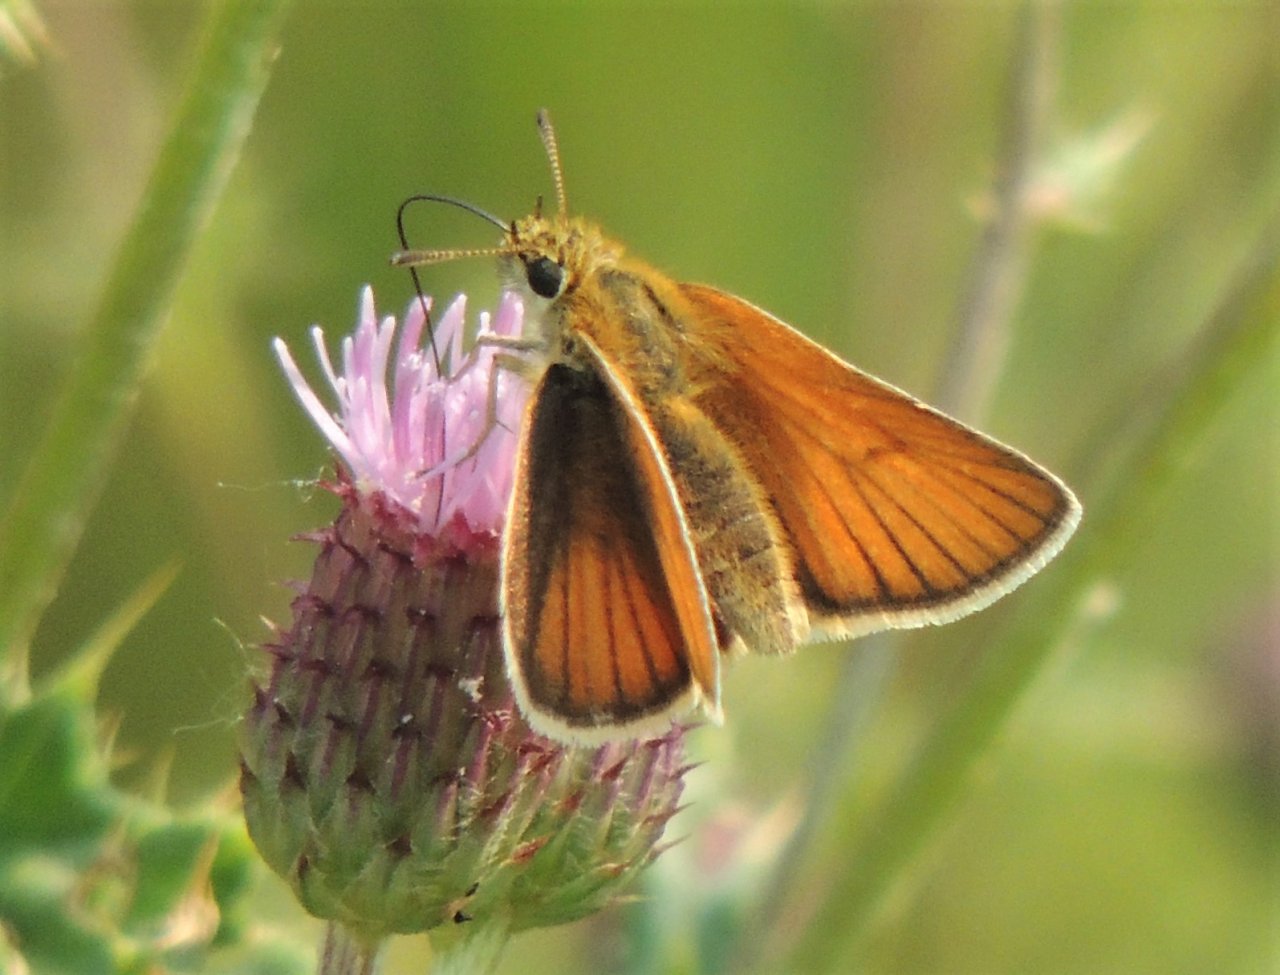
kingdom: Animalia
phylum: Arthropoda
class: Insecta
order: Lepidoptera
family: Hesperiidae
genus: Thymelicus
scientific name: Thymelicus lineola
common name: European Skipper
